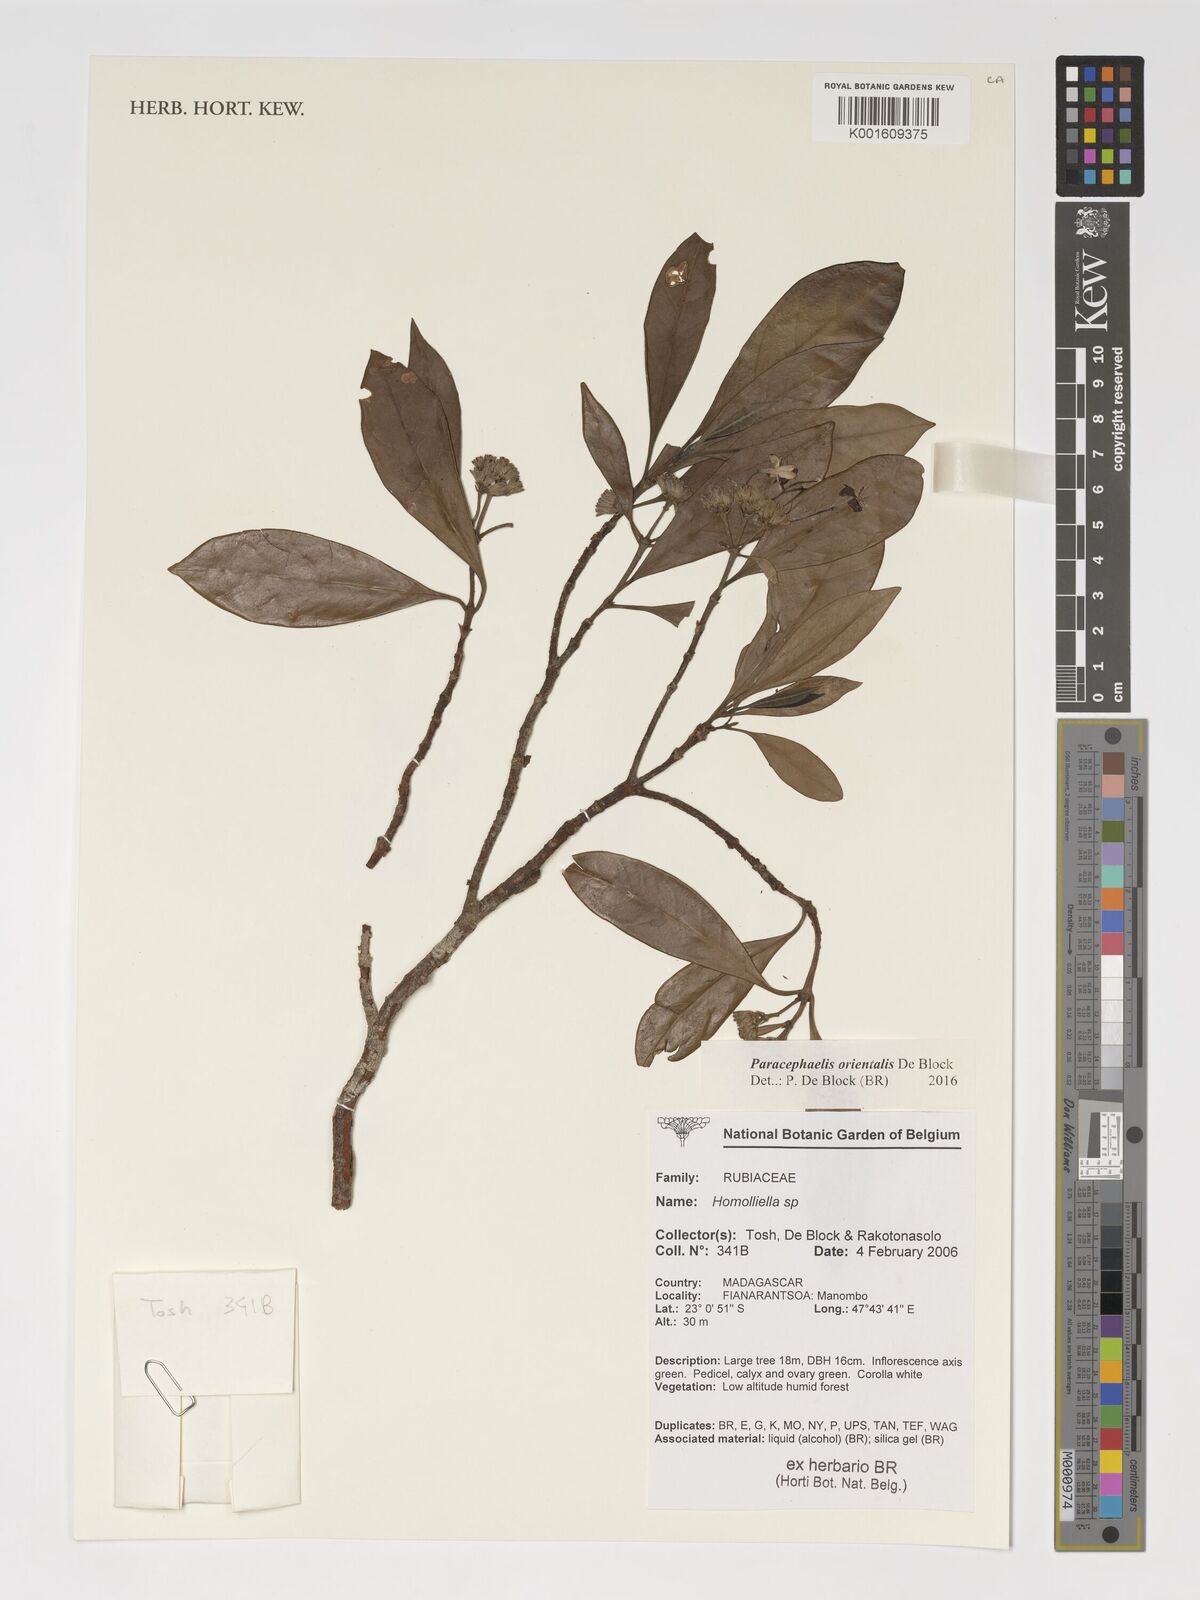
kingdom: Plantae
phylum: Tracheophyta
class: Magnoliopsida
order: Gentianales
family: Rubiaceae
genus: Paracephaelis
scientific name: Paracephaelis
